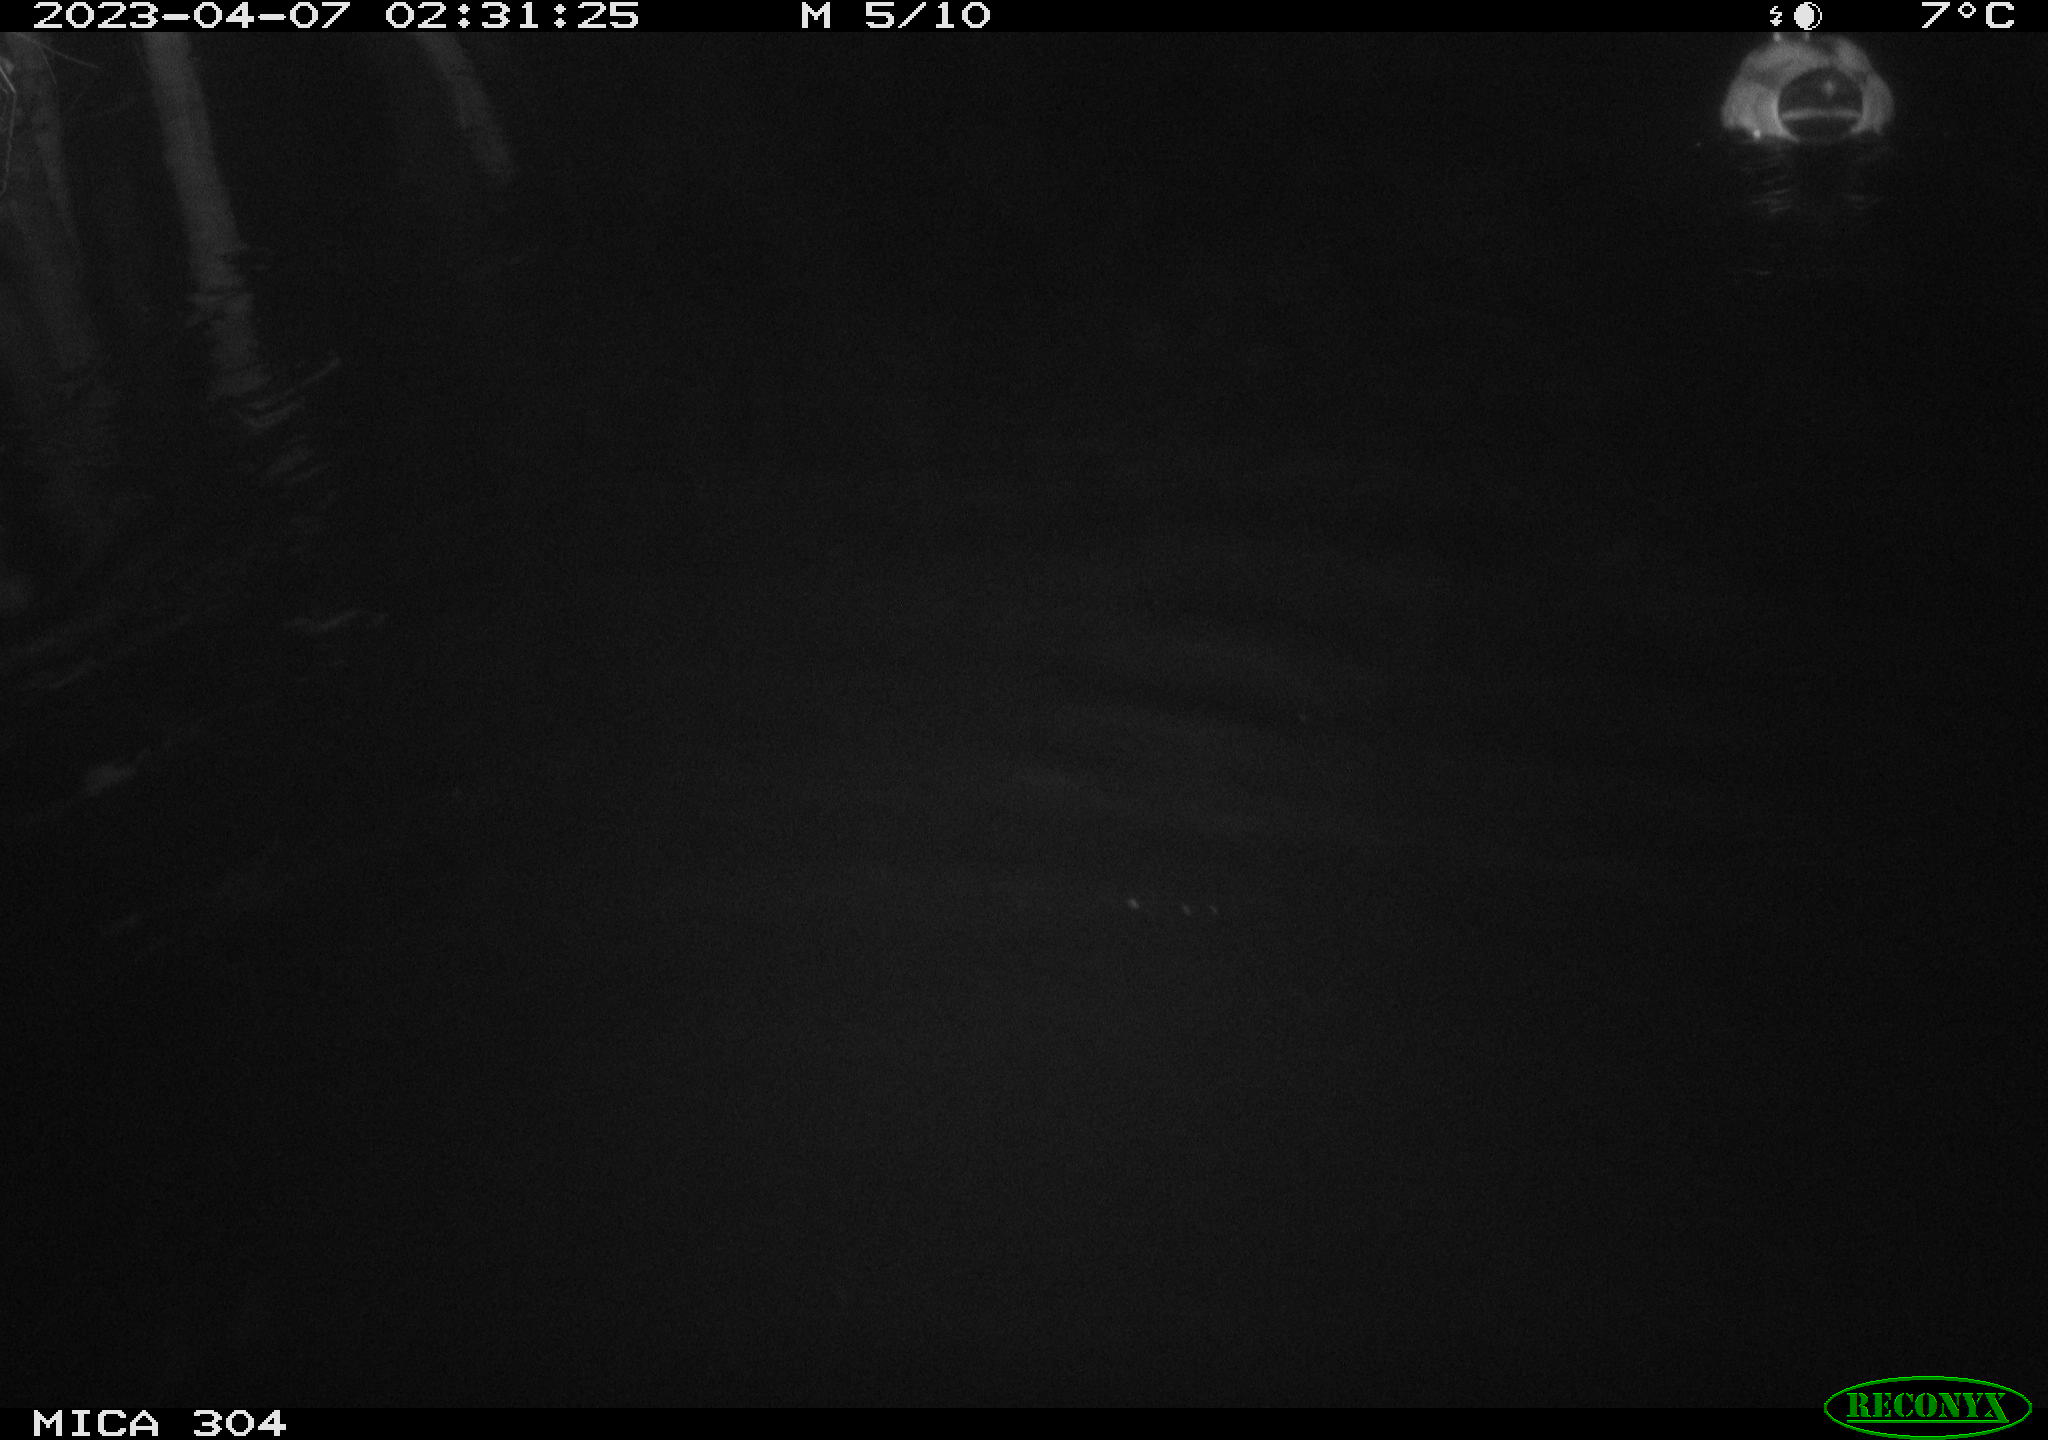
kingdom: Animalia
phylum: Chordata
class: Aves
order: Anseriformes
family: Anatidae
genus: Anas
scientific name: Anas
